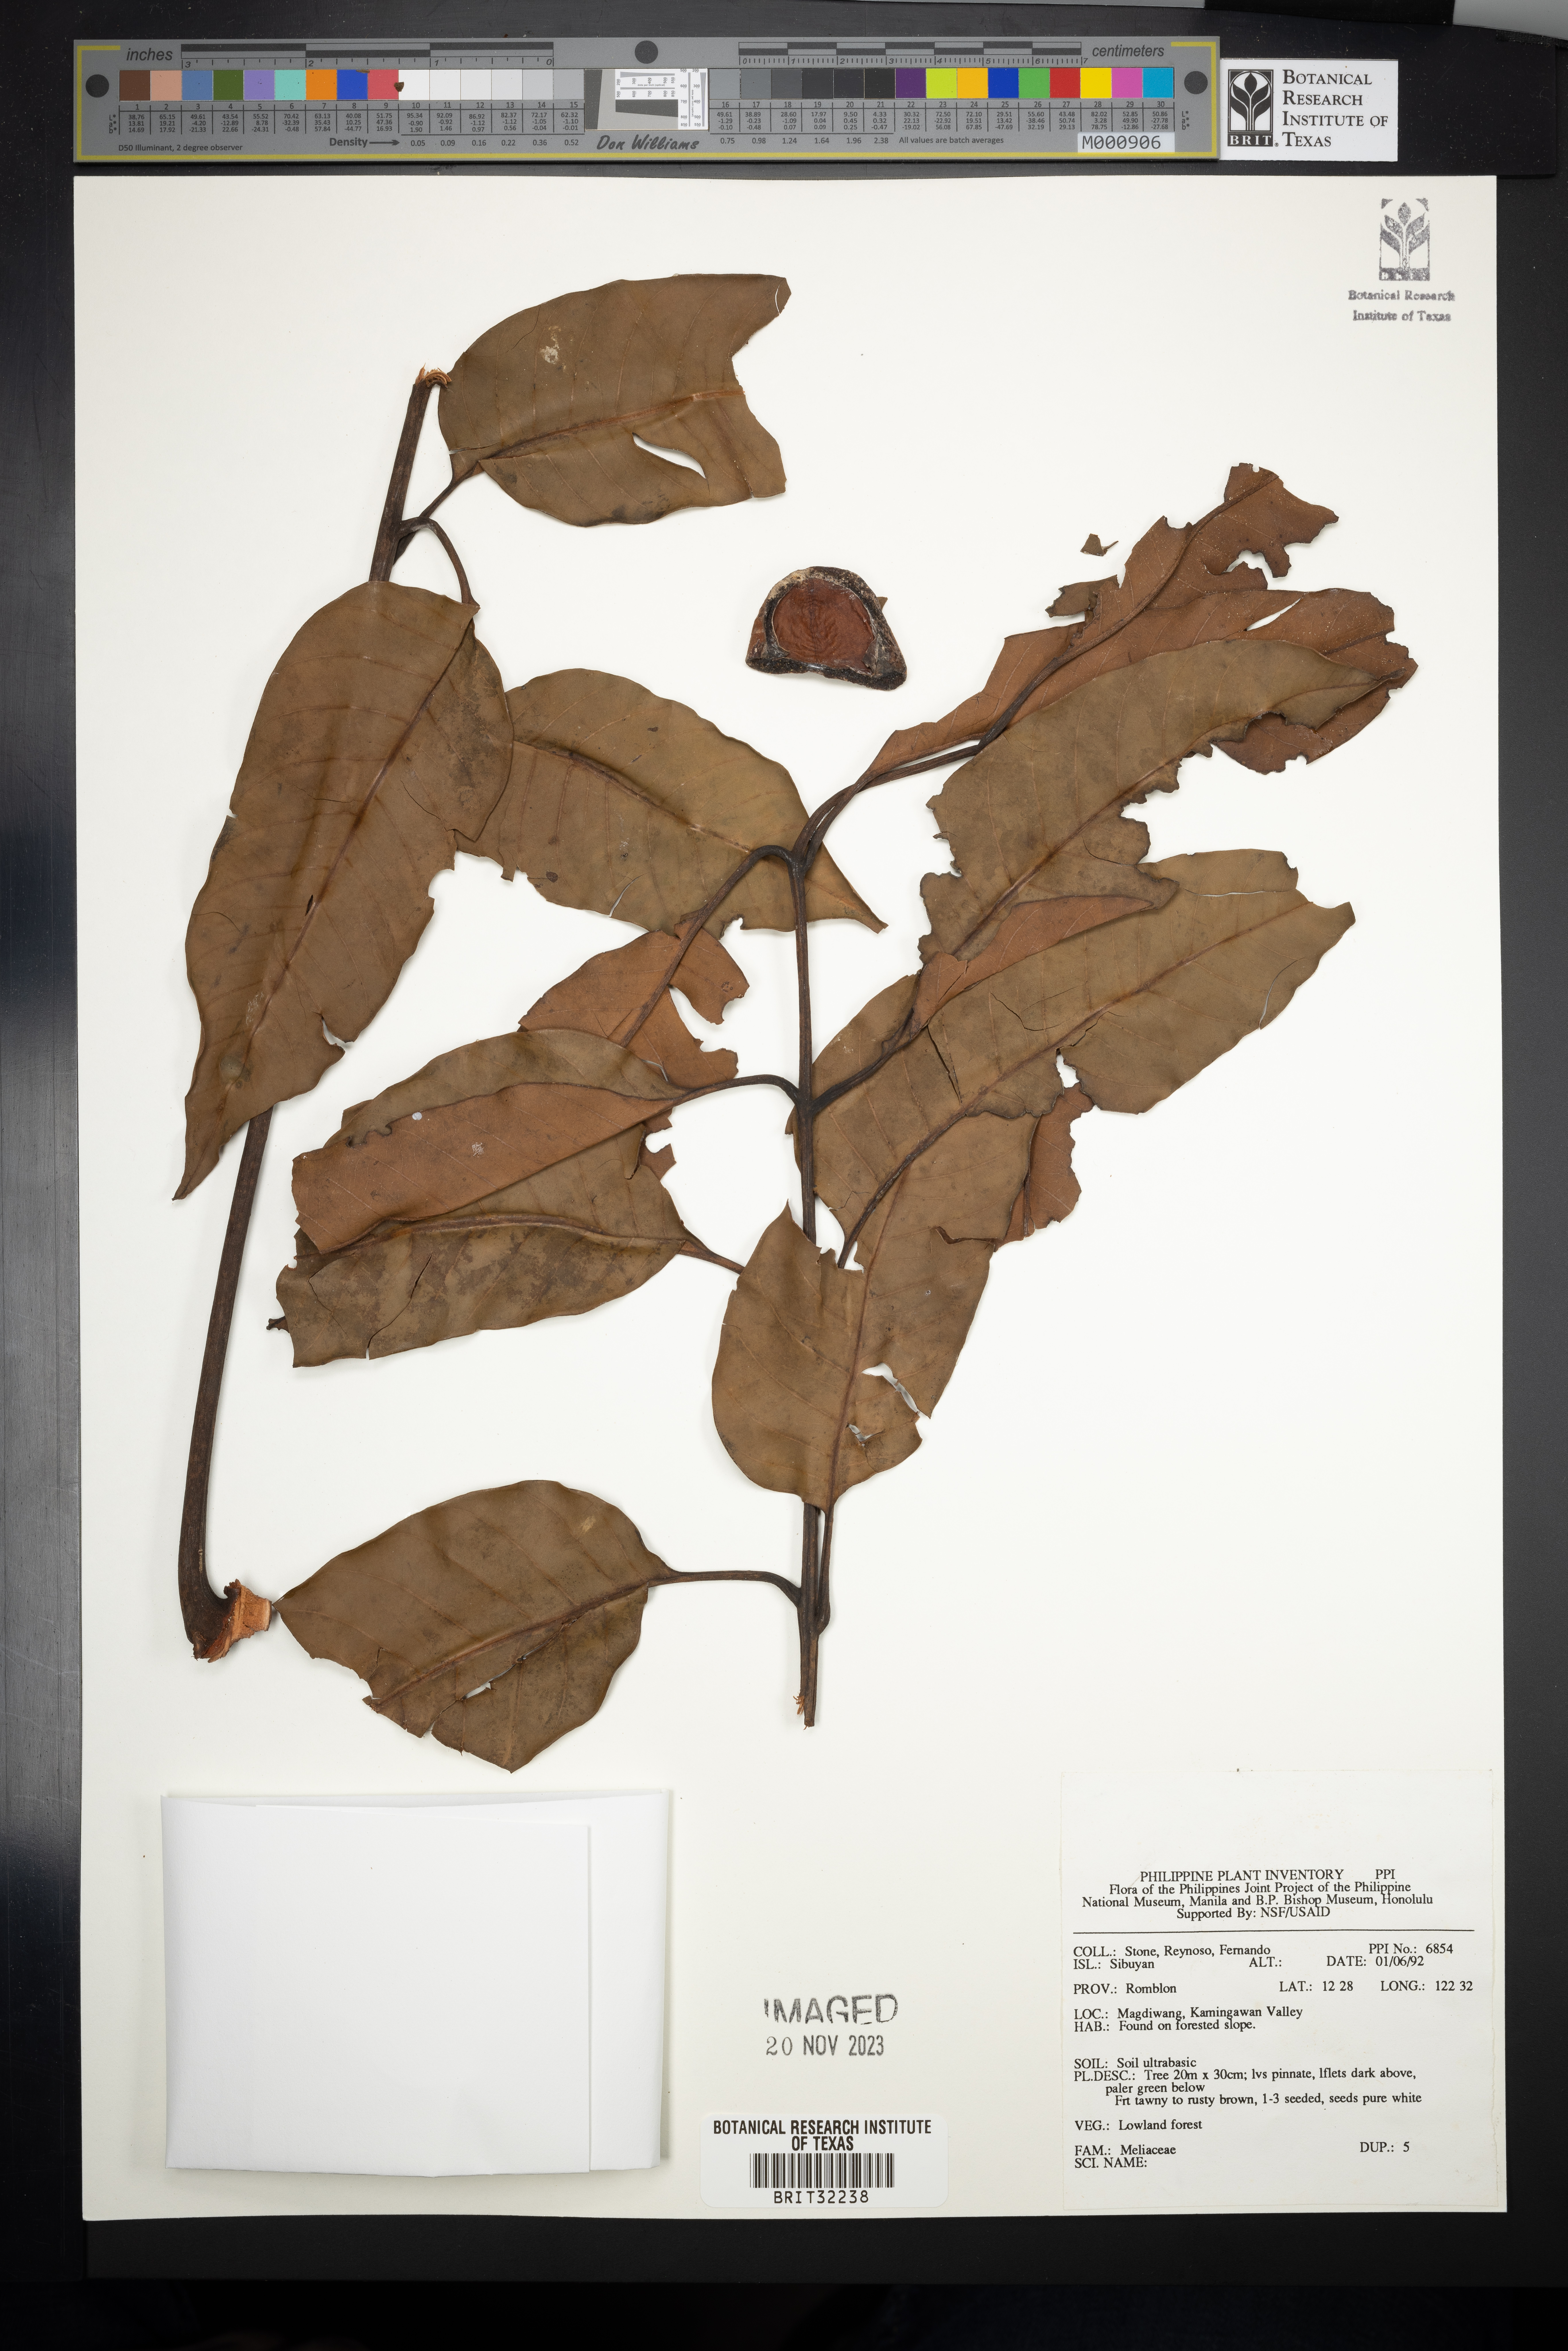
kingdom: Plantae
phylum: Tracheophyta
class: Magnoliopsida
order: Sapindales
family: Meliaceae
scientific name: Meliaceae
